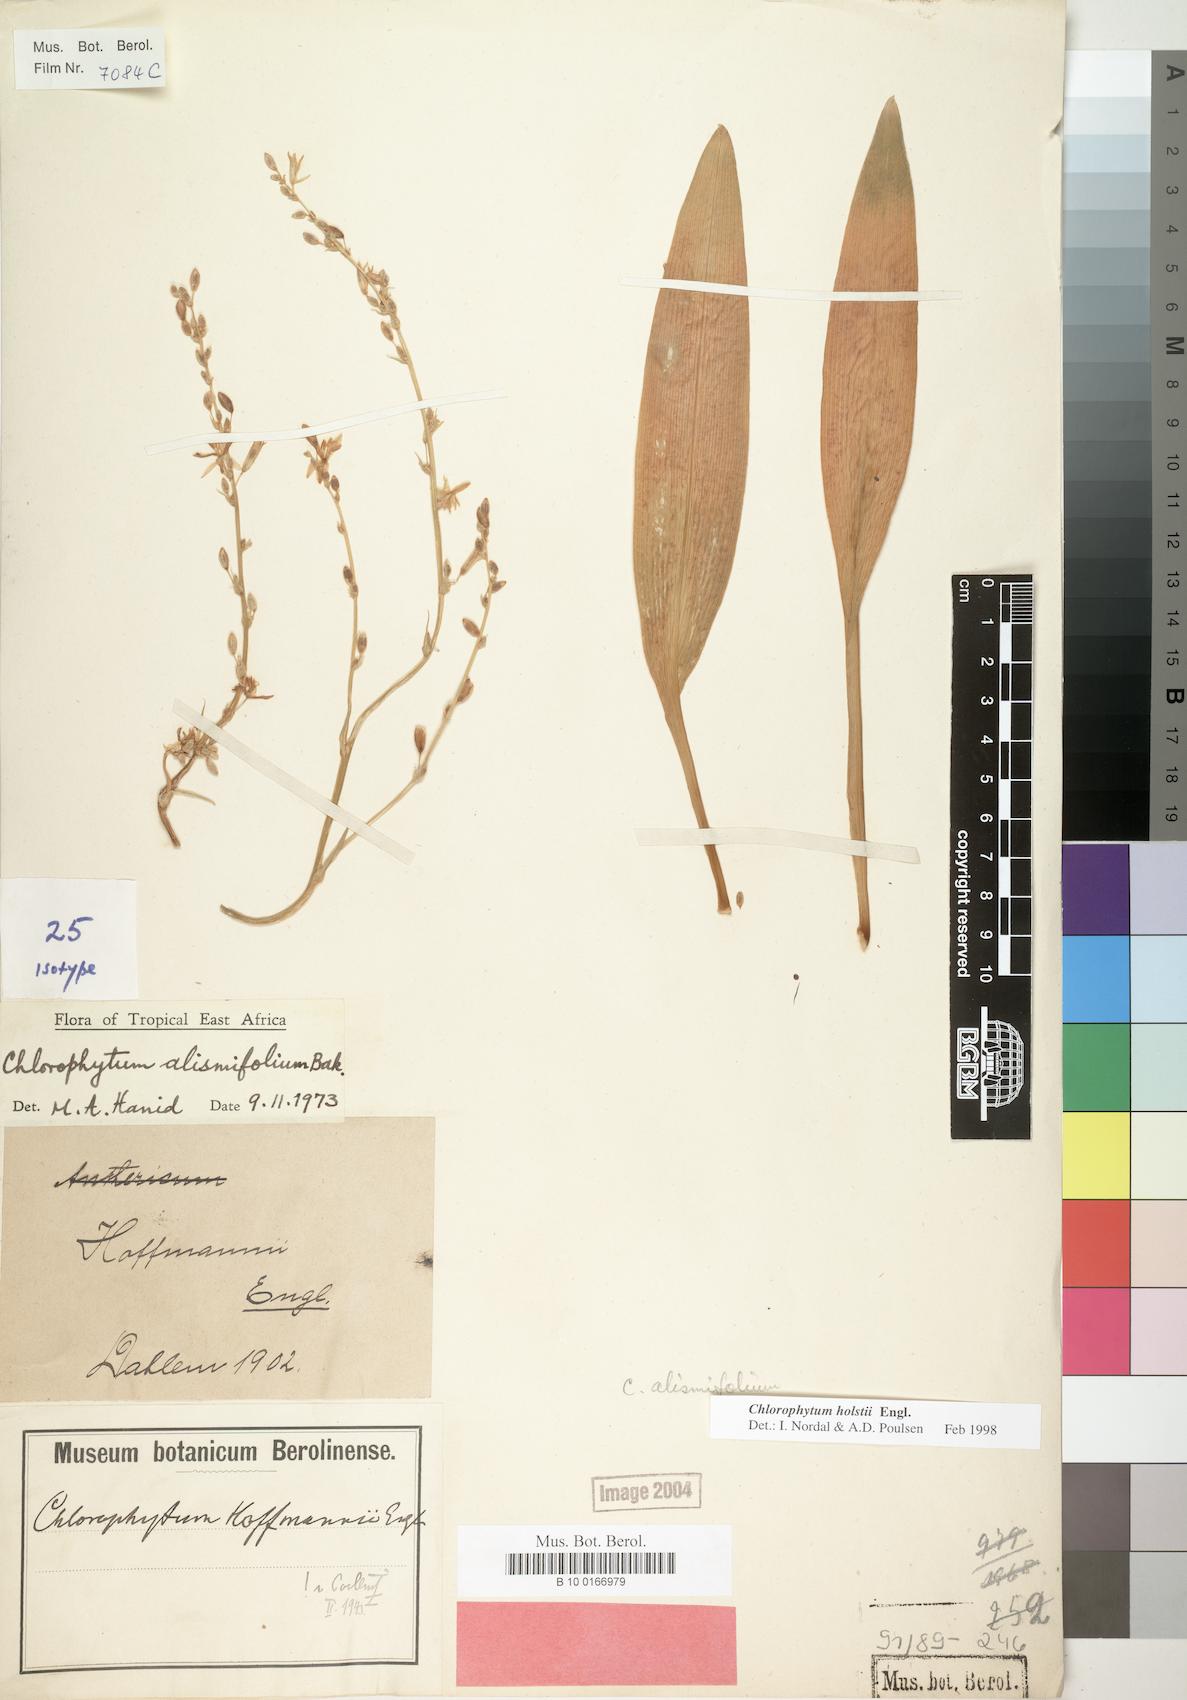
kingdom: Plantae
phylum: Tracheophyta
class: Liliopsida
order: Asparagales
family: Asparagaceae
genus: Chlorophytum
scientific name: Chlorophytum holstii
